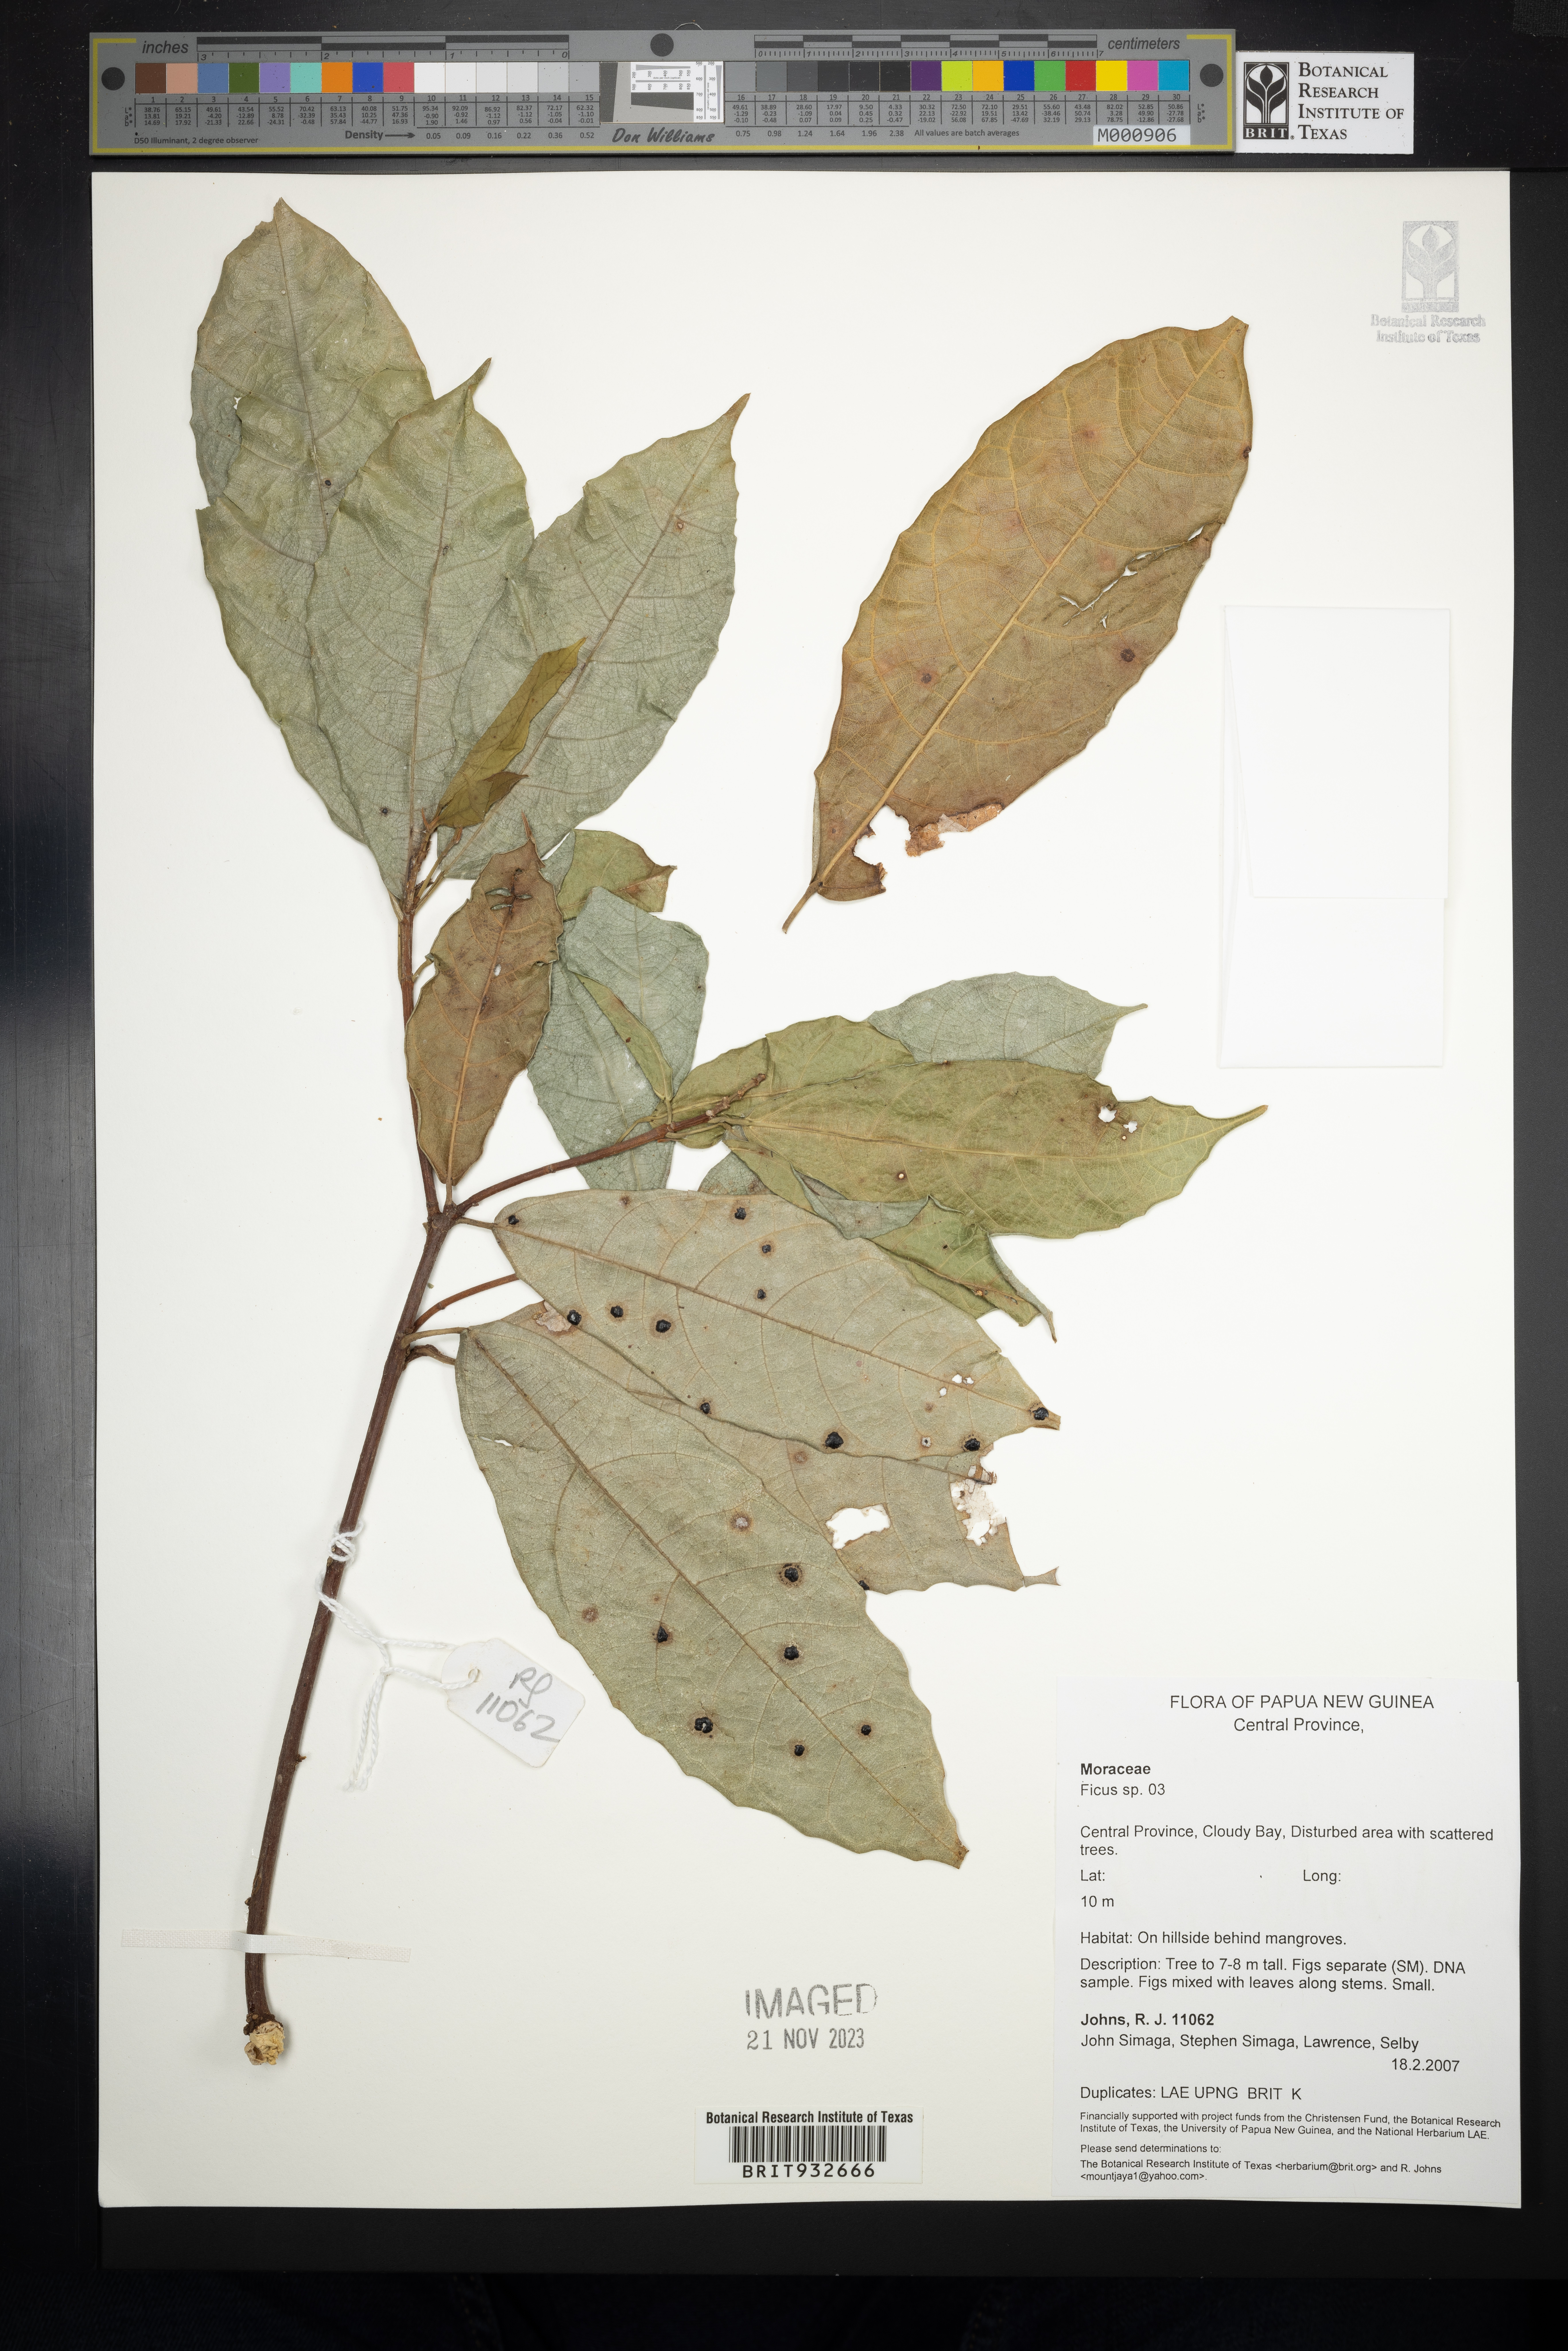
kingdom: Plantae
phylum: Tracheophyta
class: Magnoliopsida
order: Rosales
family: Moraceae
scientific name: Moraceae
